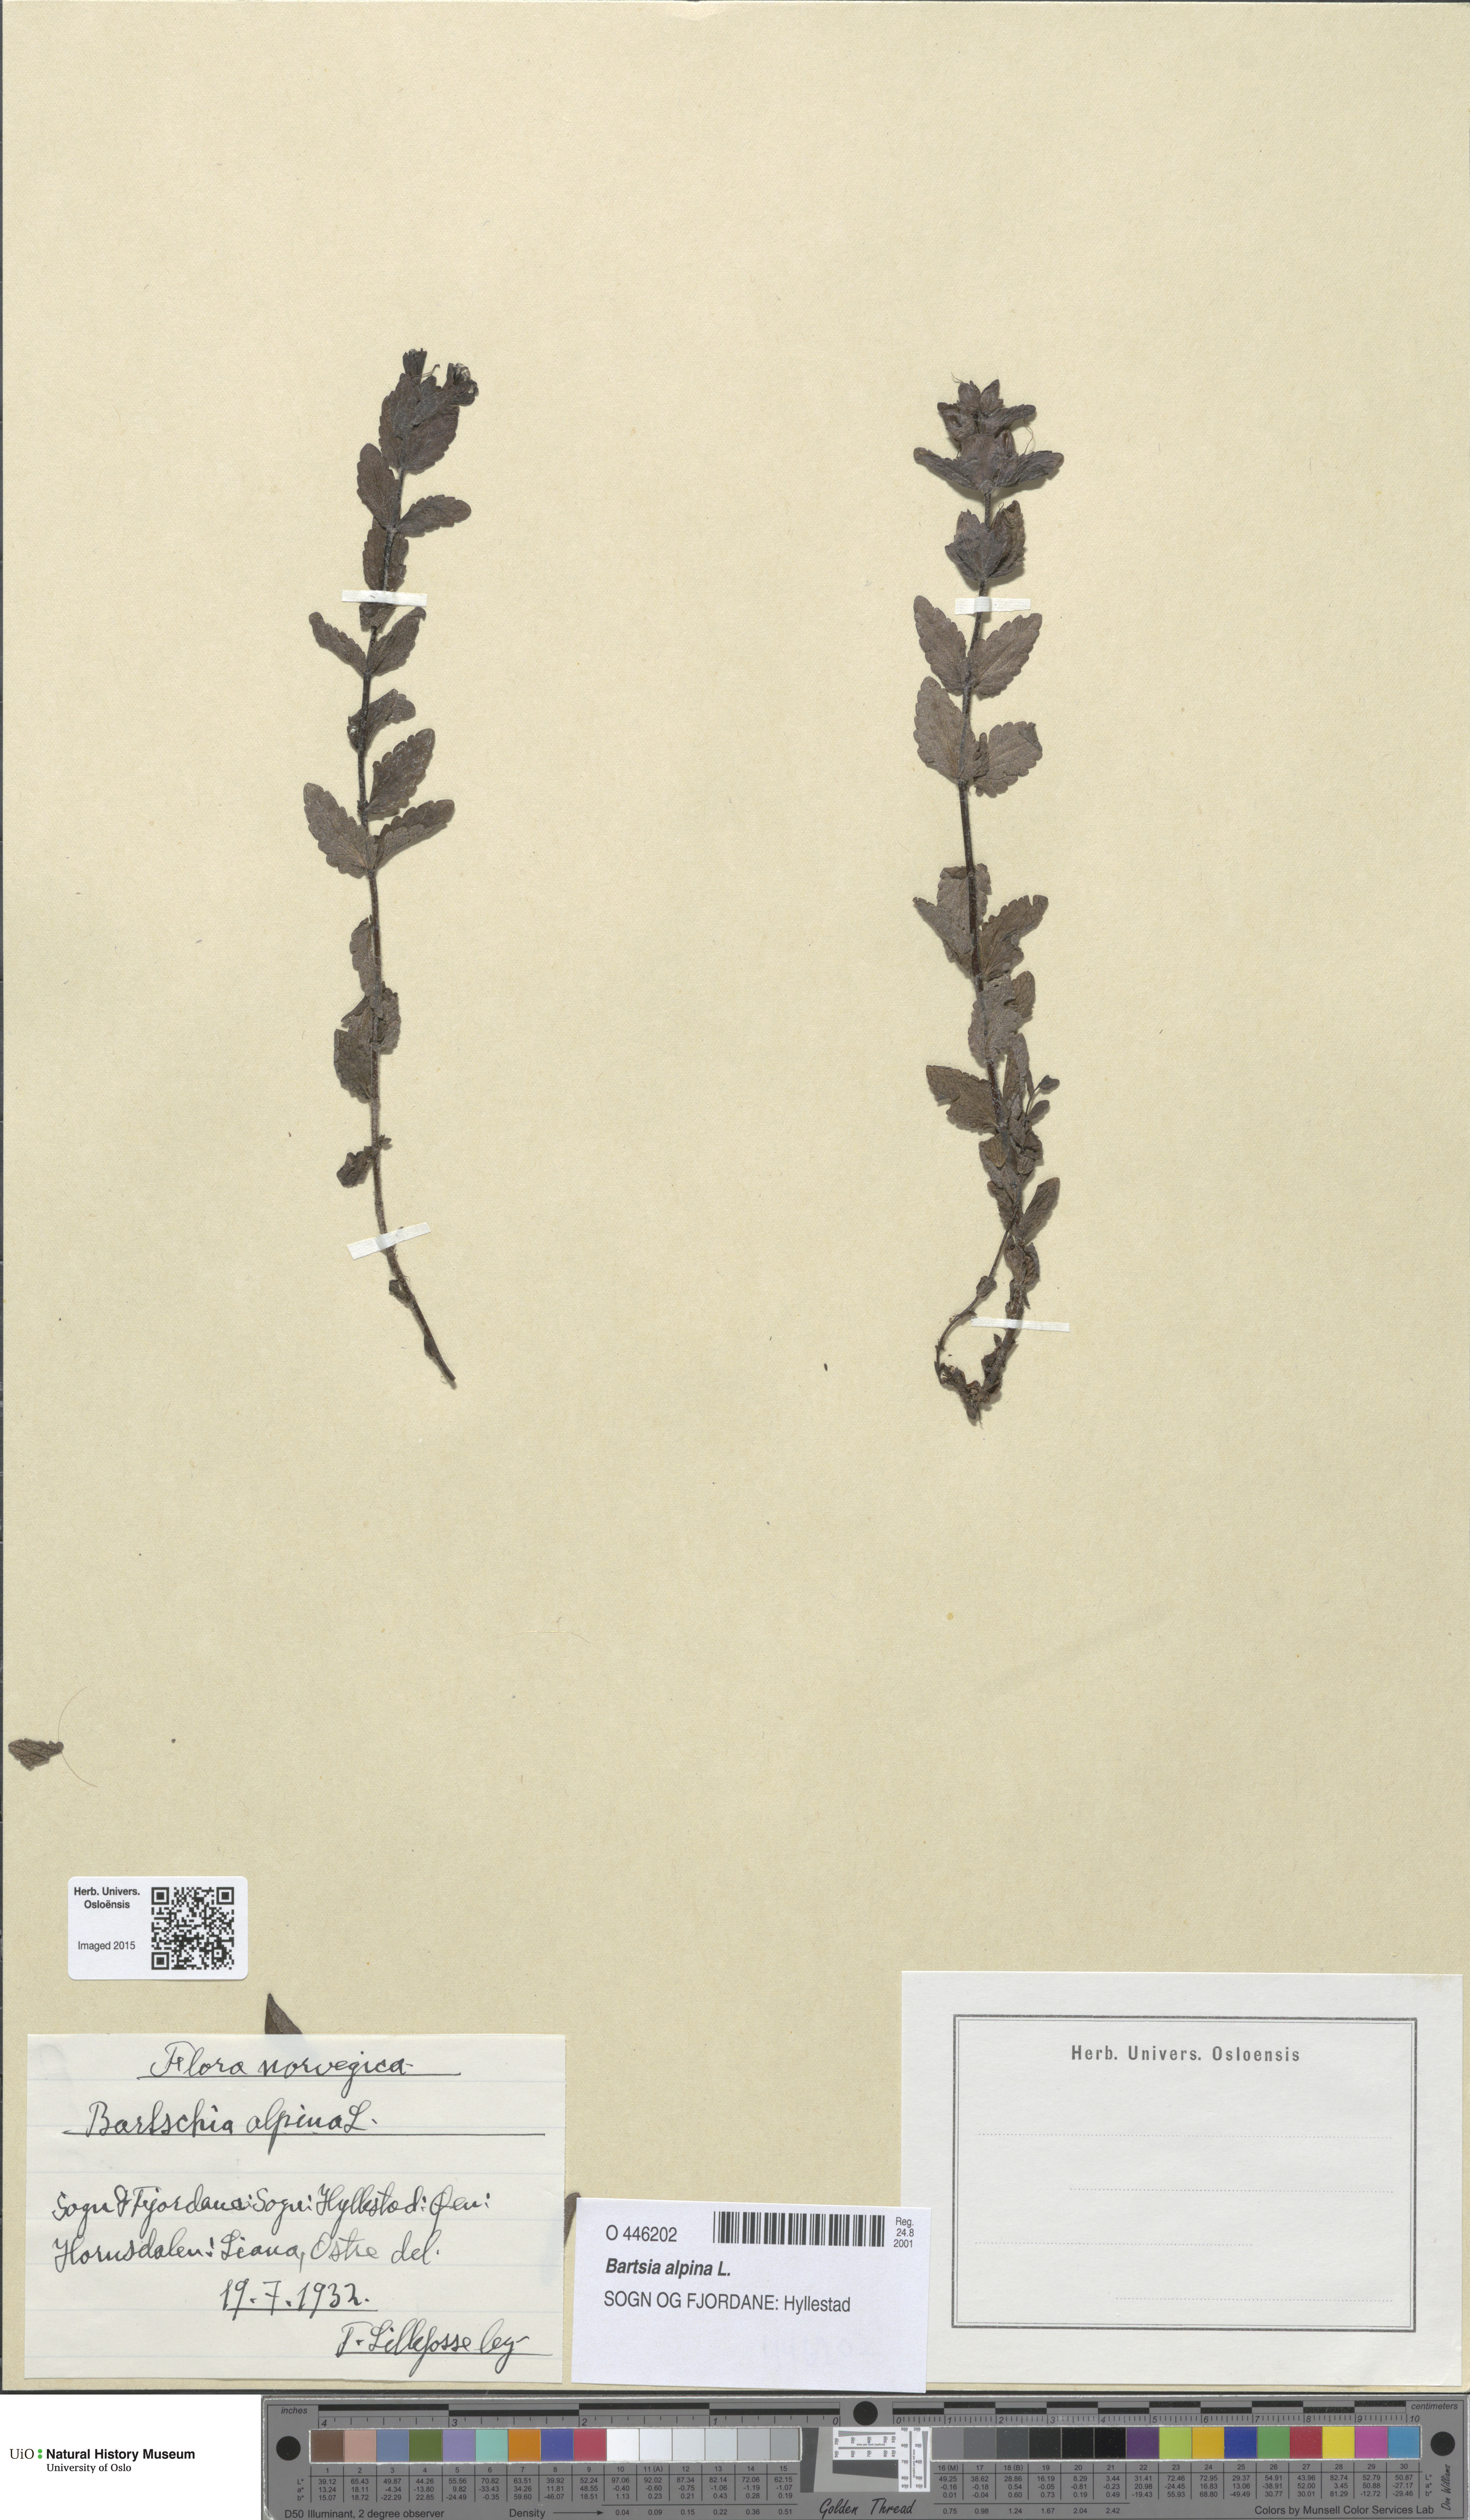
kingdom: Plantae
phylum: Tracheophyta
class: Magnoliopsida
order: Lamiales
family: Orobanchaceae
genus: Bartsia
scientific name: Bartsia alpina
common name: Alpine bartsia
